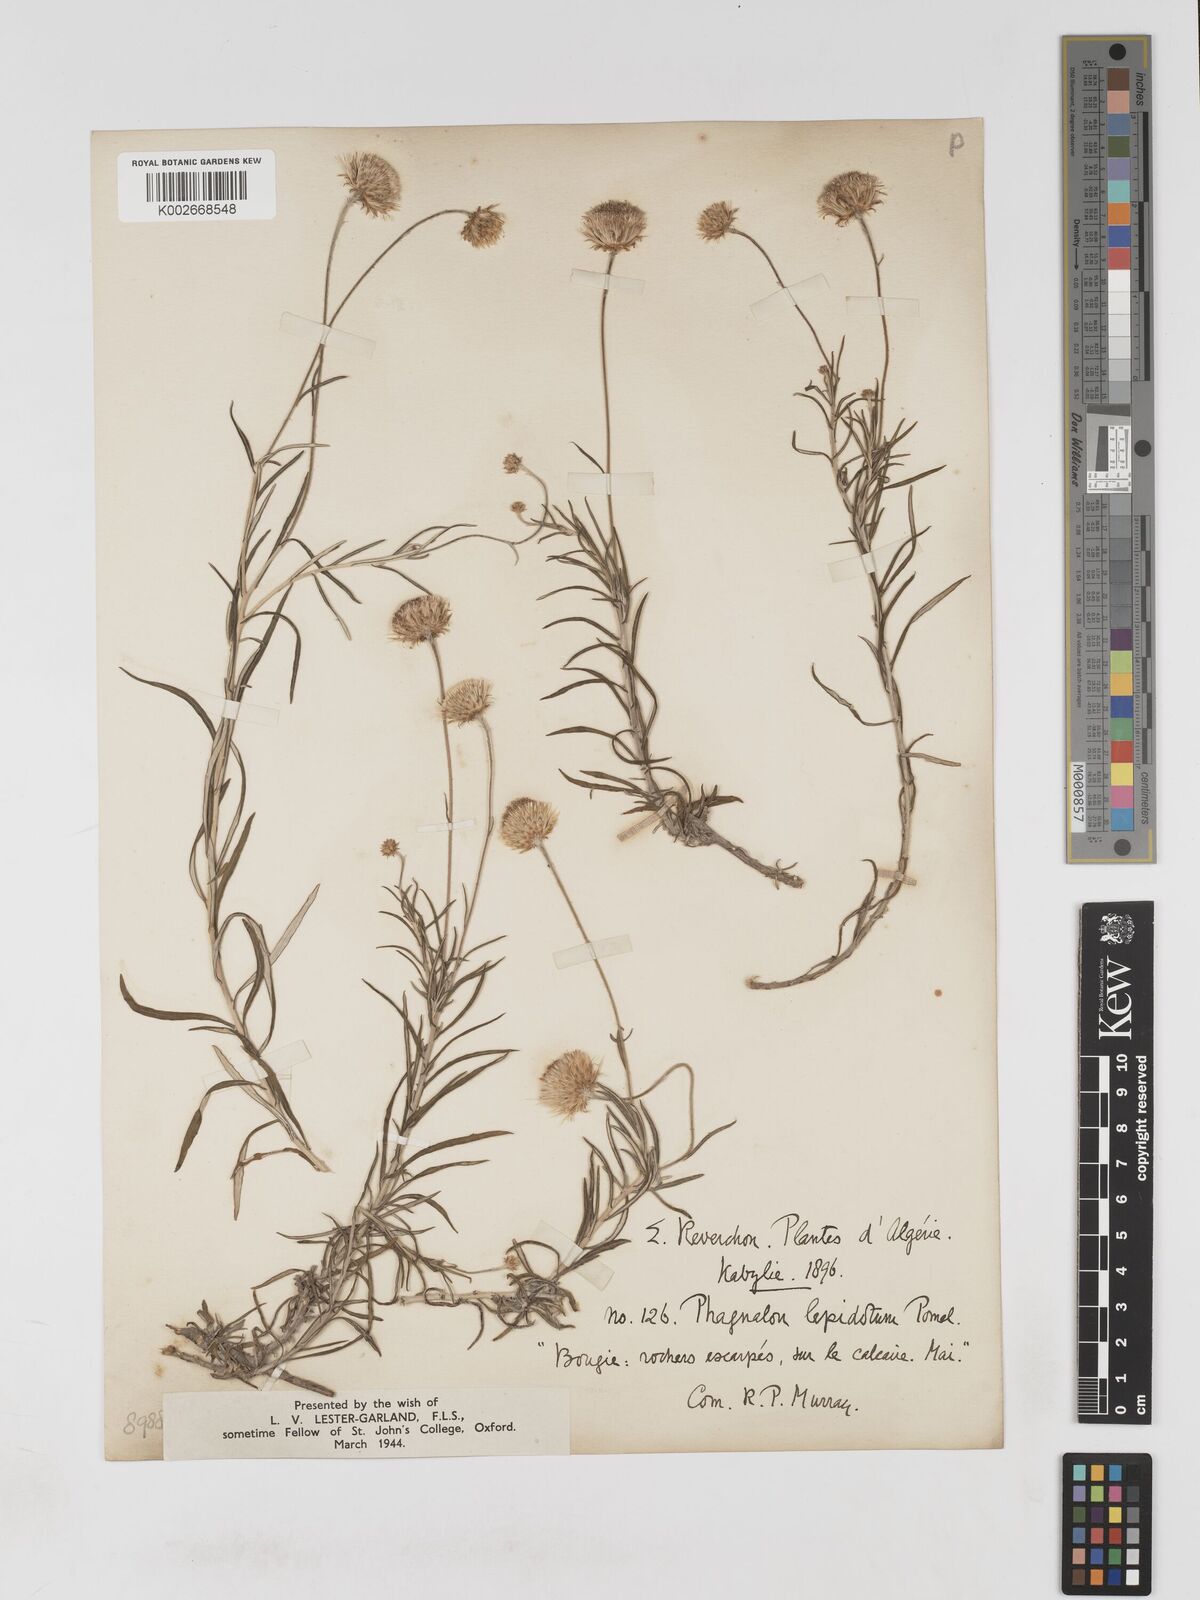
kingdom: Plantae
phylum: Tracheophyta
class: Magnoliopsida
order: Asterales
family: Asteraceae
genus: Phagnalon
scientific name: Phagnalon saxatile
